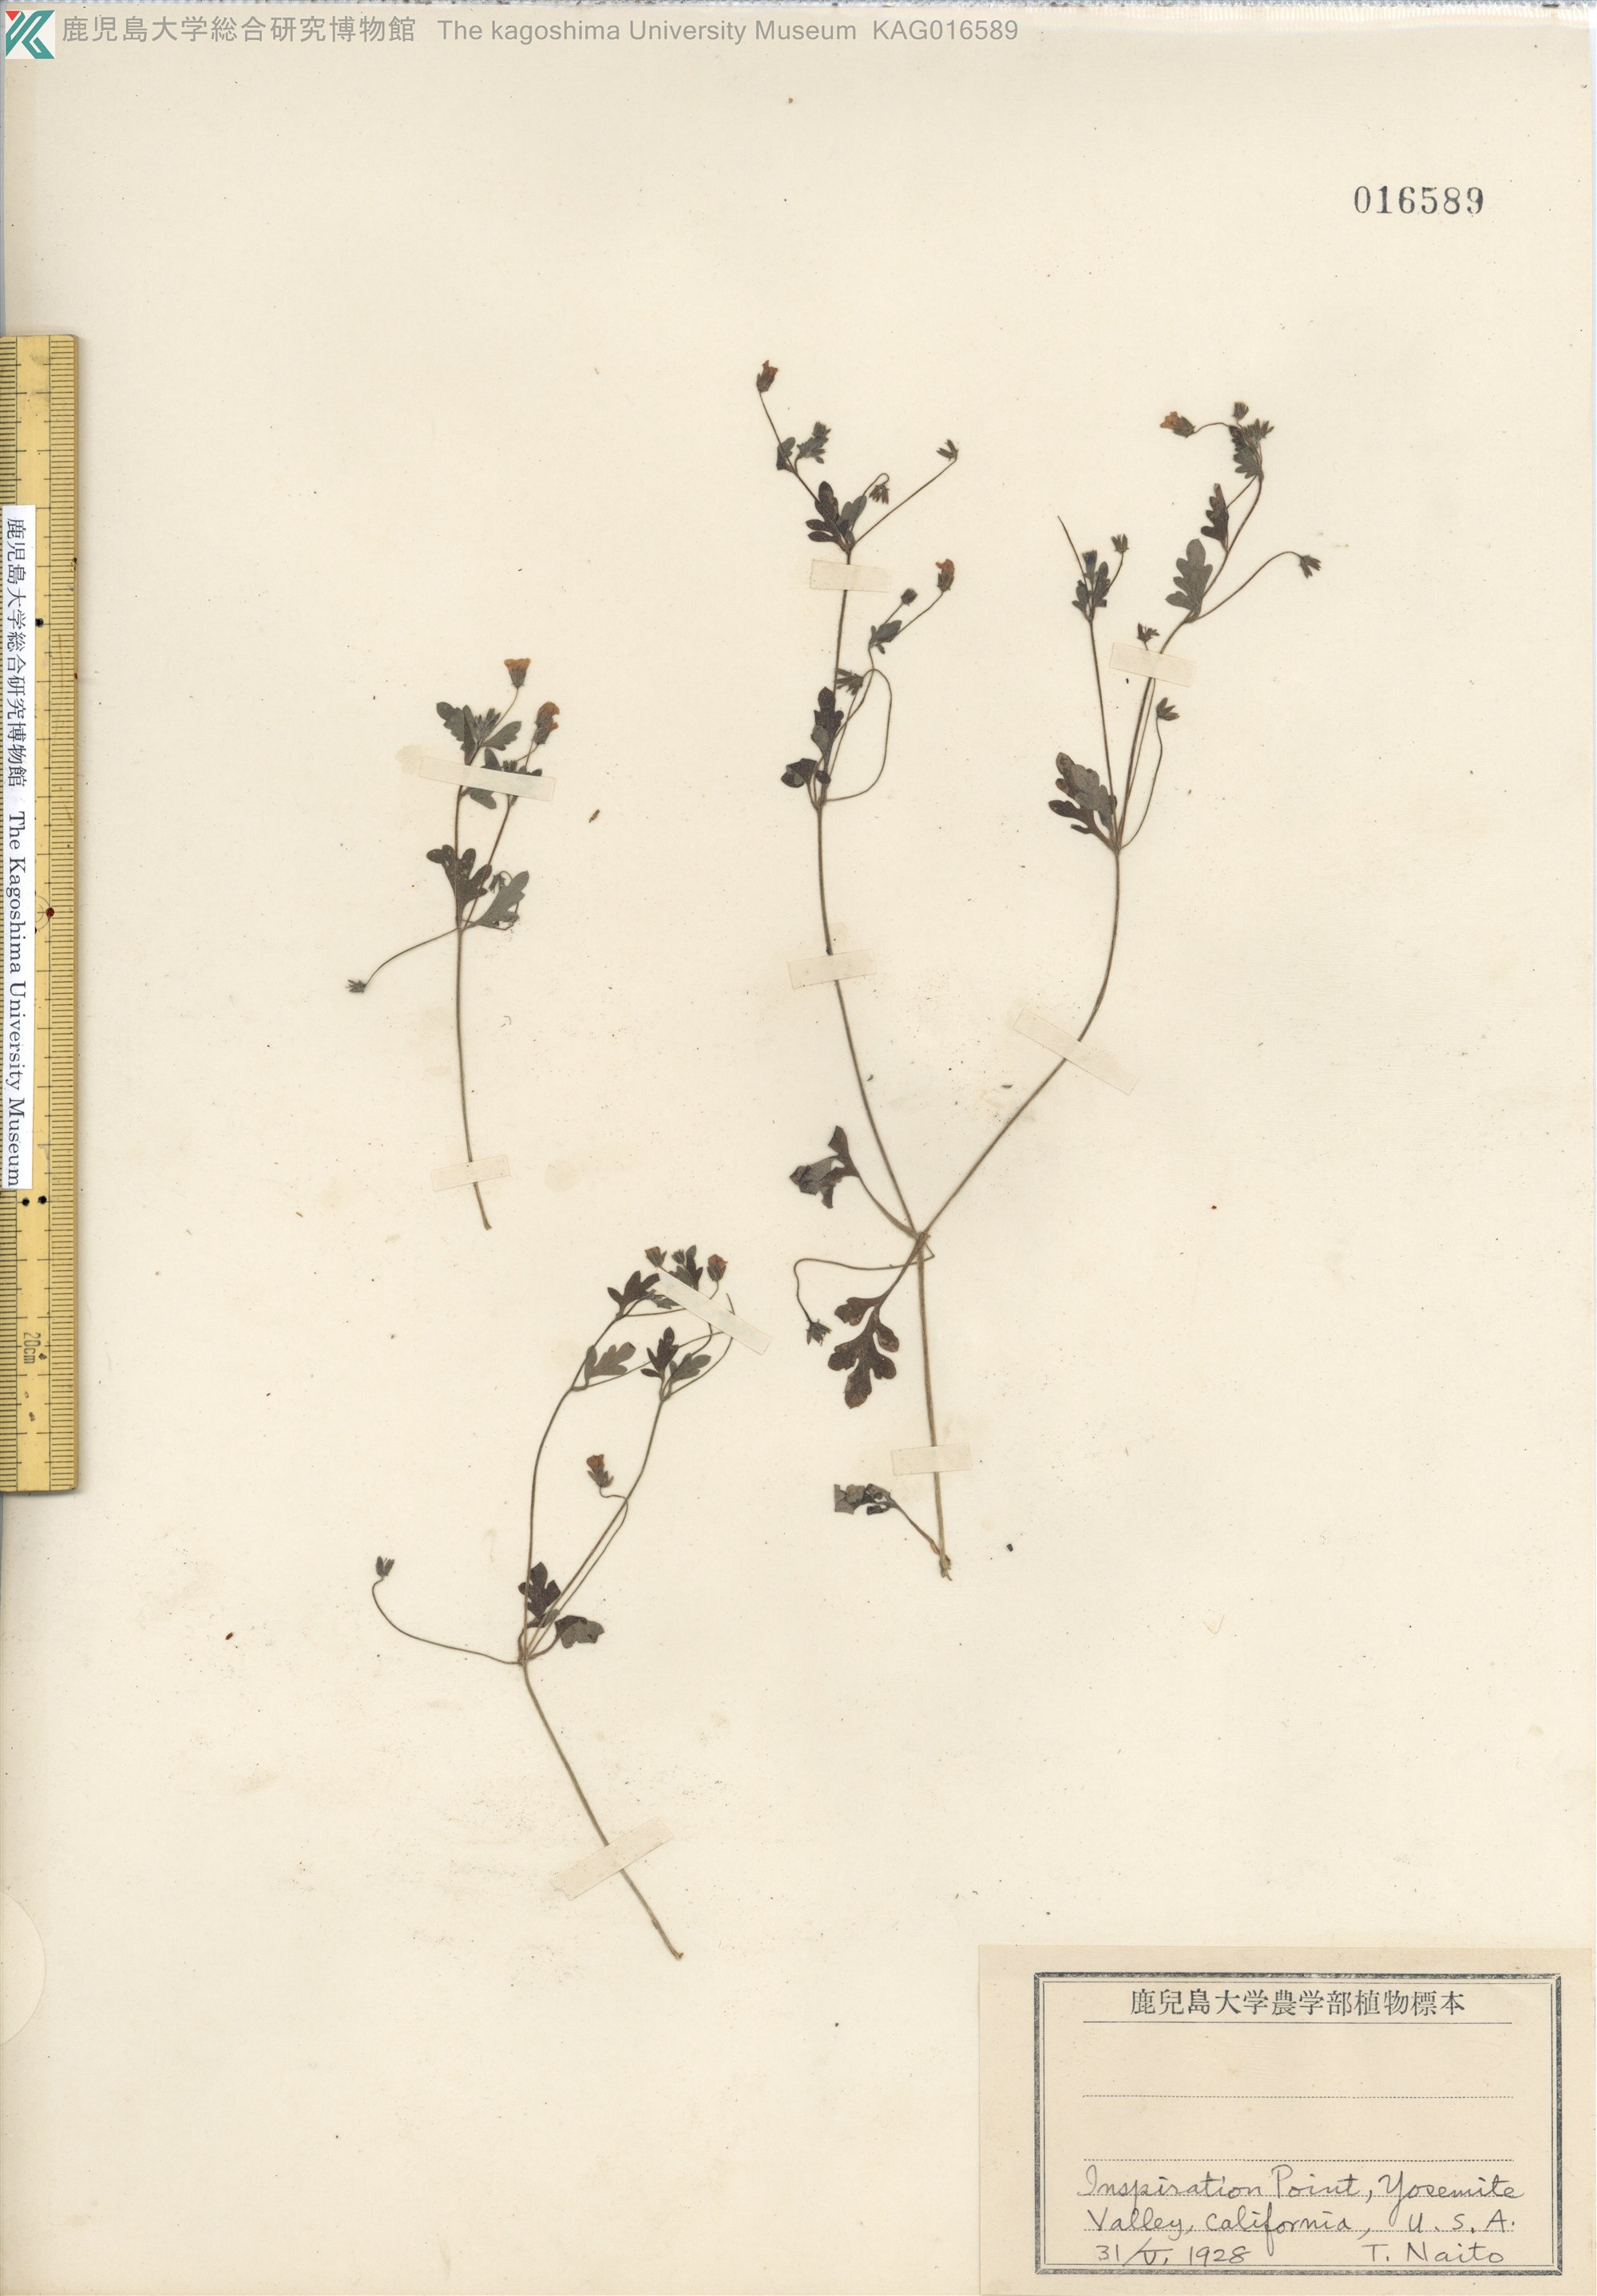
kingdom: Plantae
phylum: Tracheophyta
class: Magnoliopsida
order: Boraginales
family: Hydrophyllaceae
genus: Nemophila
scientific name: Nemophila heterophylla
